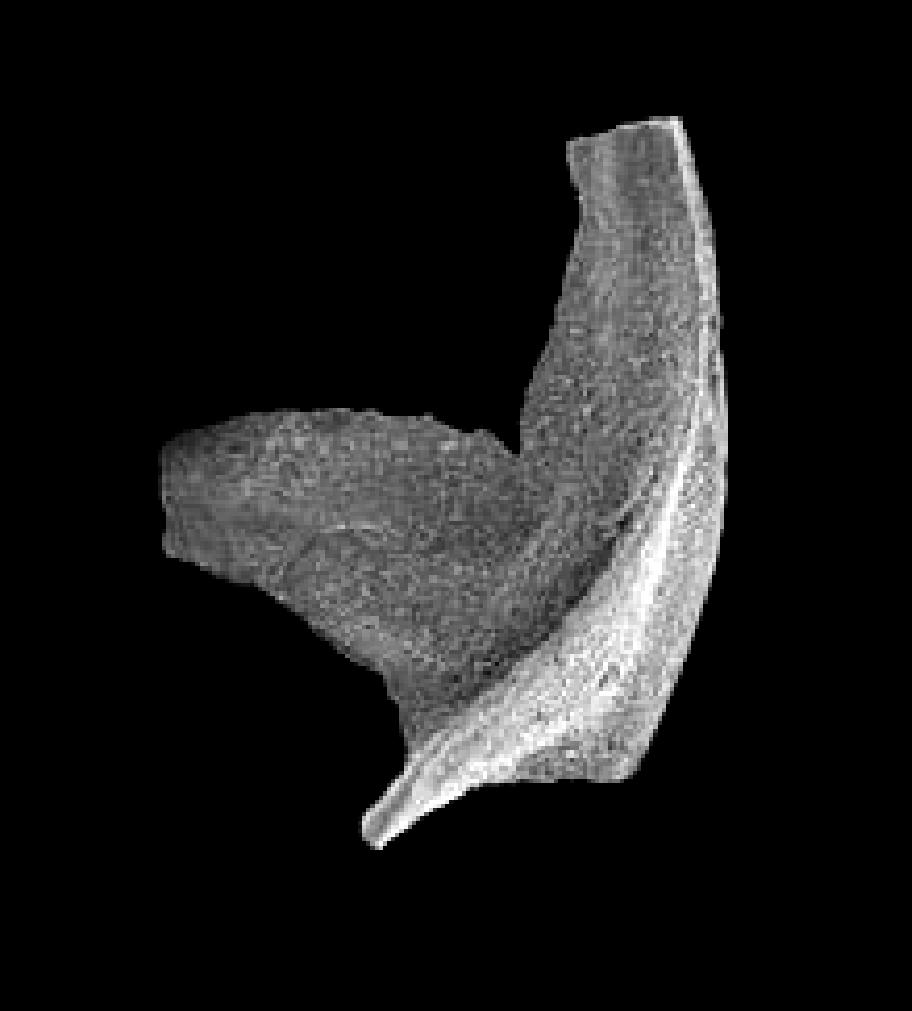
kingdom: Animalia
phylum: Chordata
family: Acodontidae
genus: Tripodus
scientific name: Tripodus
